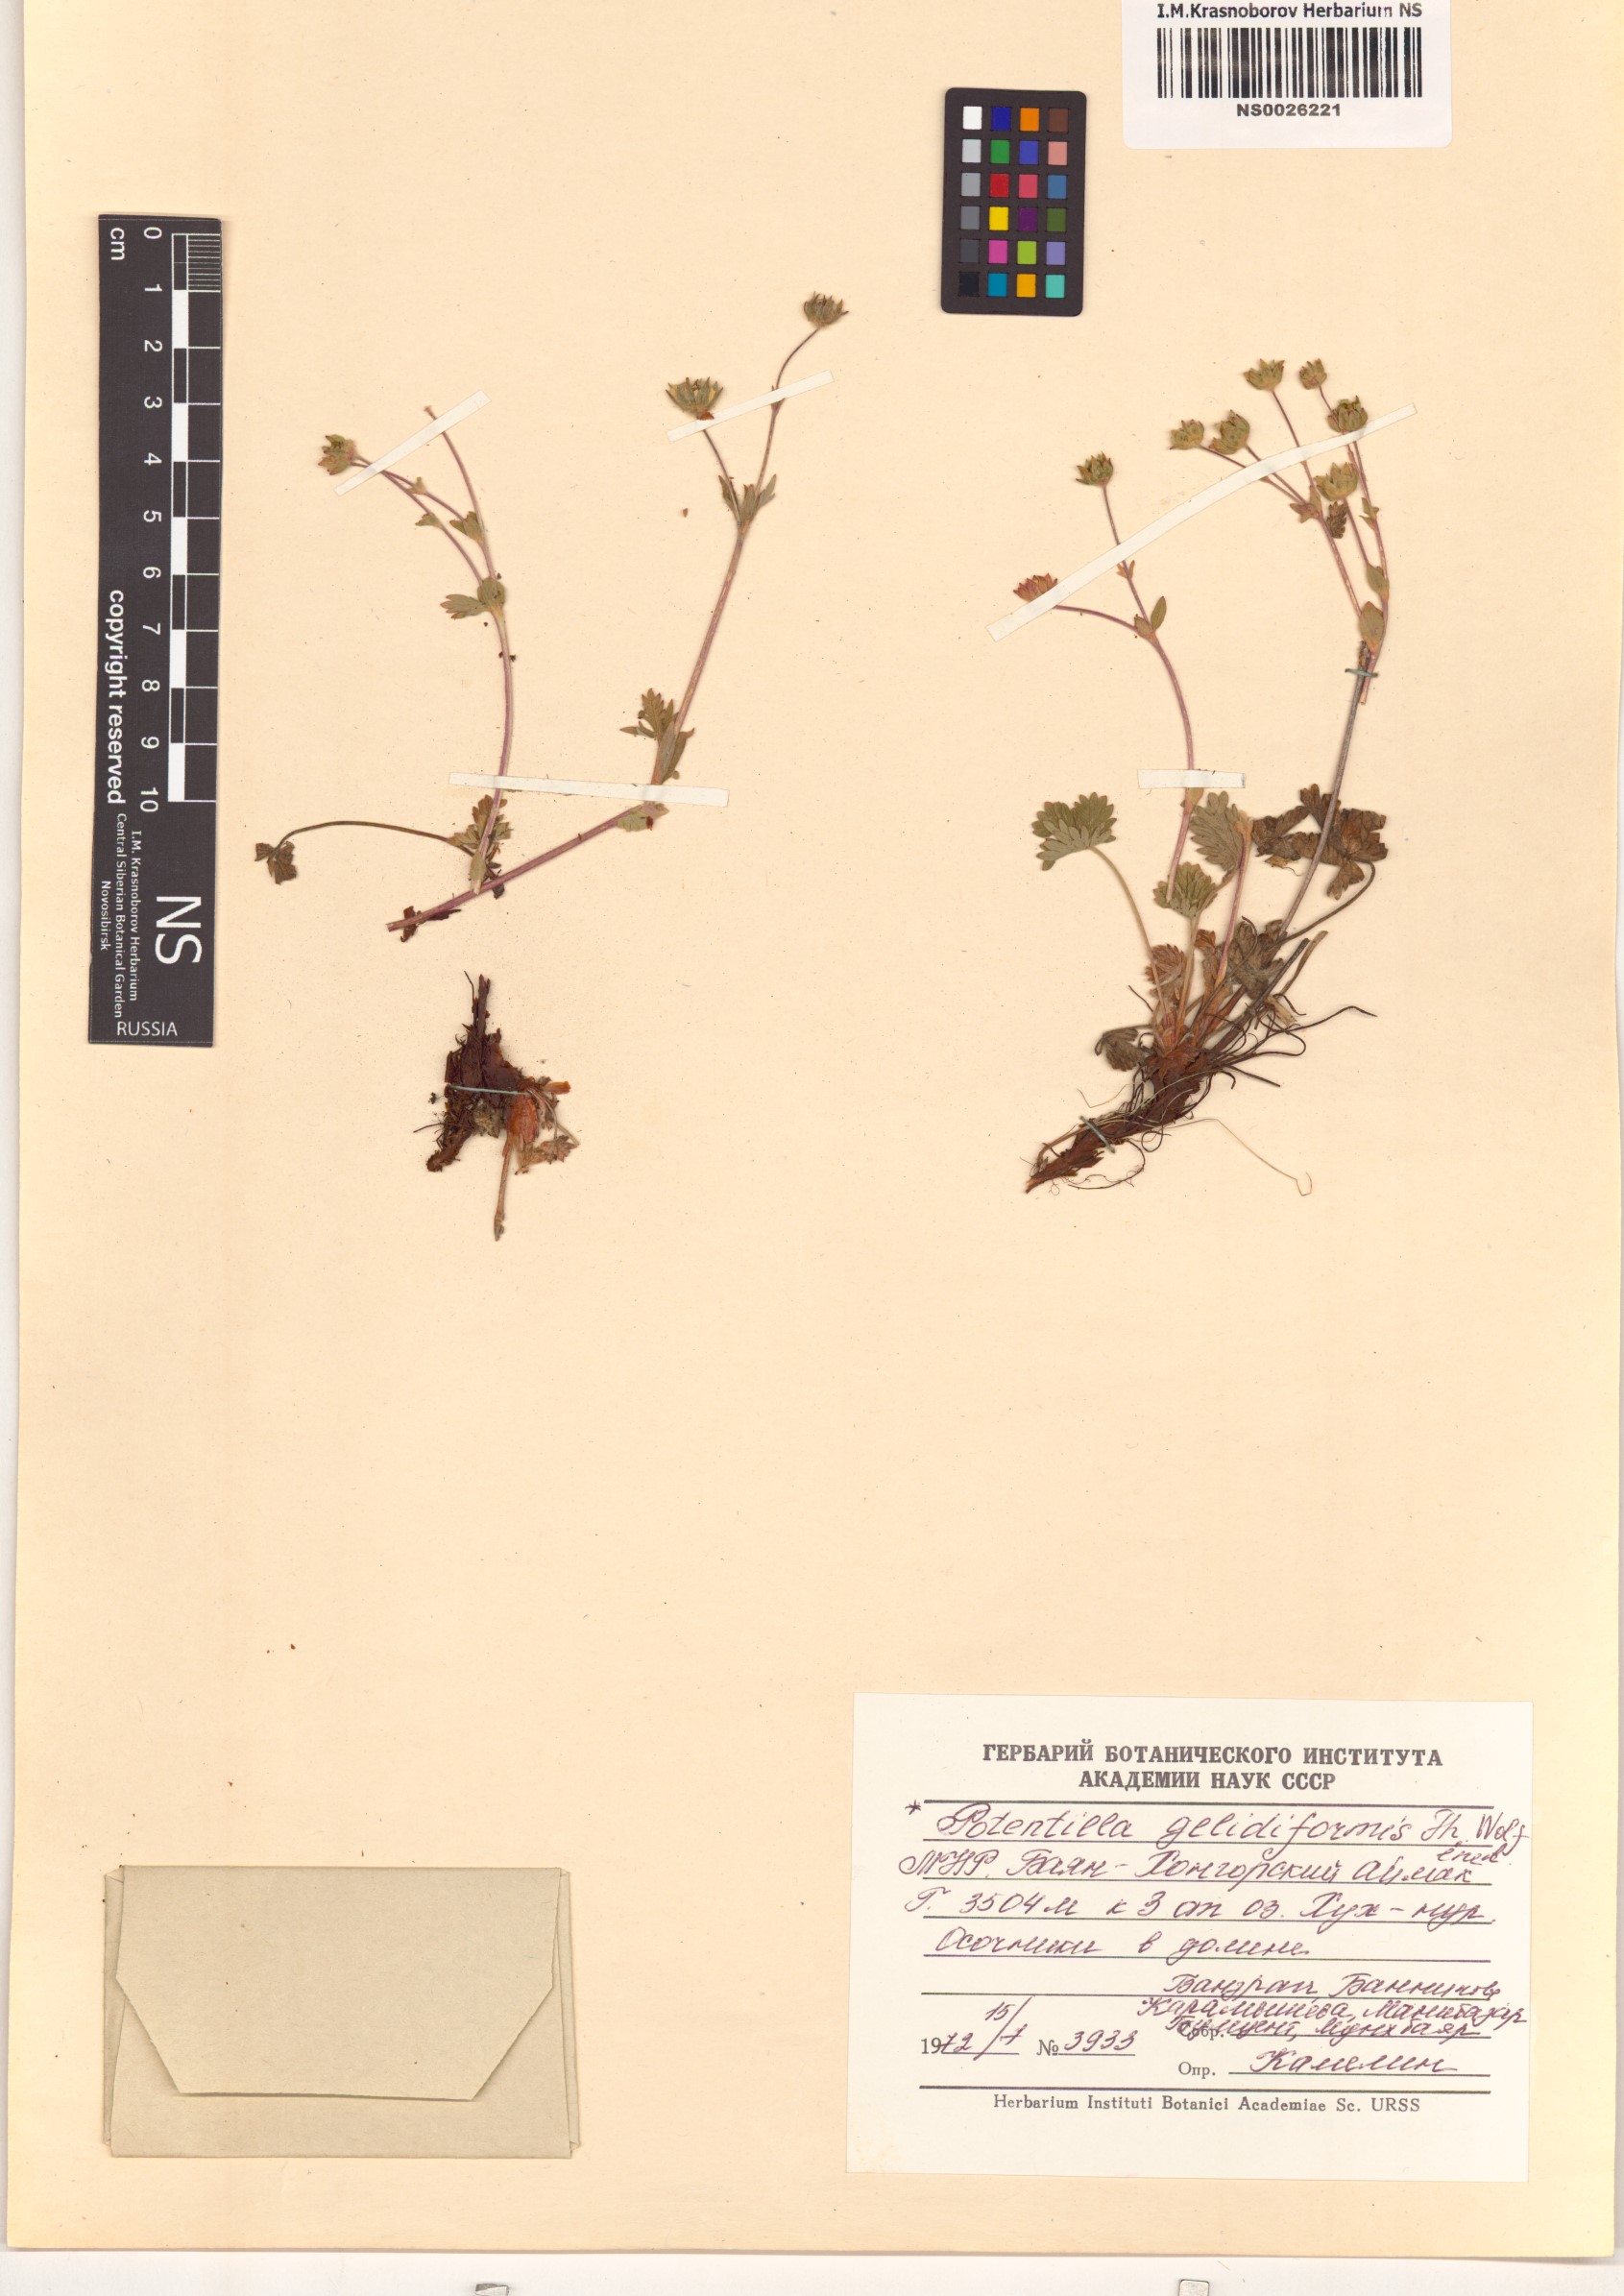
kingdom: Plantae
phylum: Tracheophyta
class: Magnoliopsida
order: Rosales
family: Rosaceae
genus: Potentilla
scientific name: Potentilla crantzii
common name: Alpine cinquefoil
